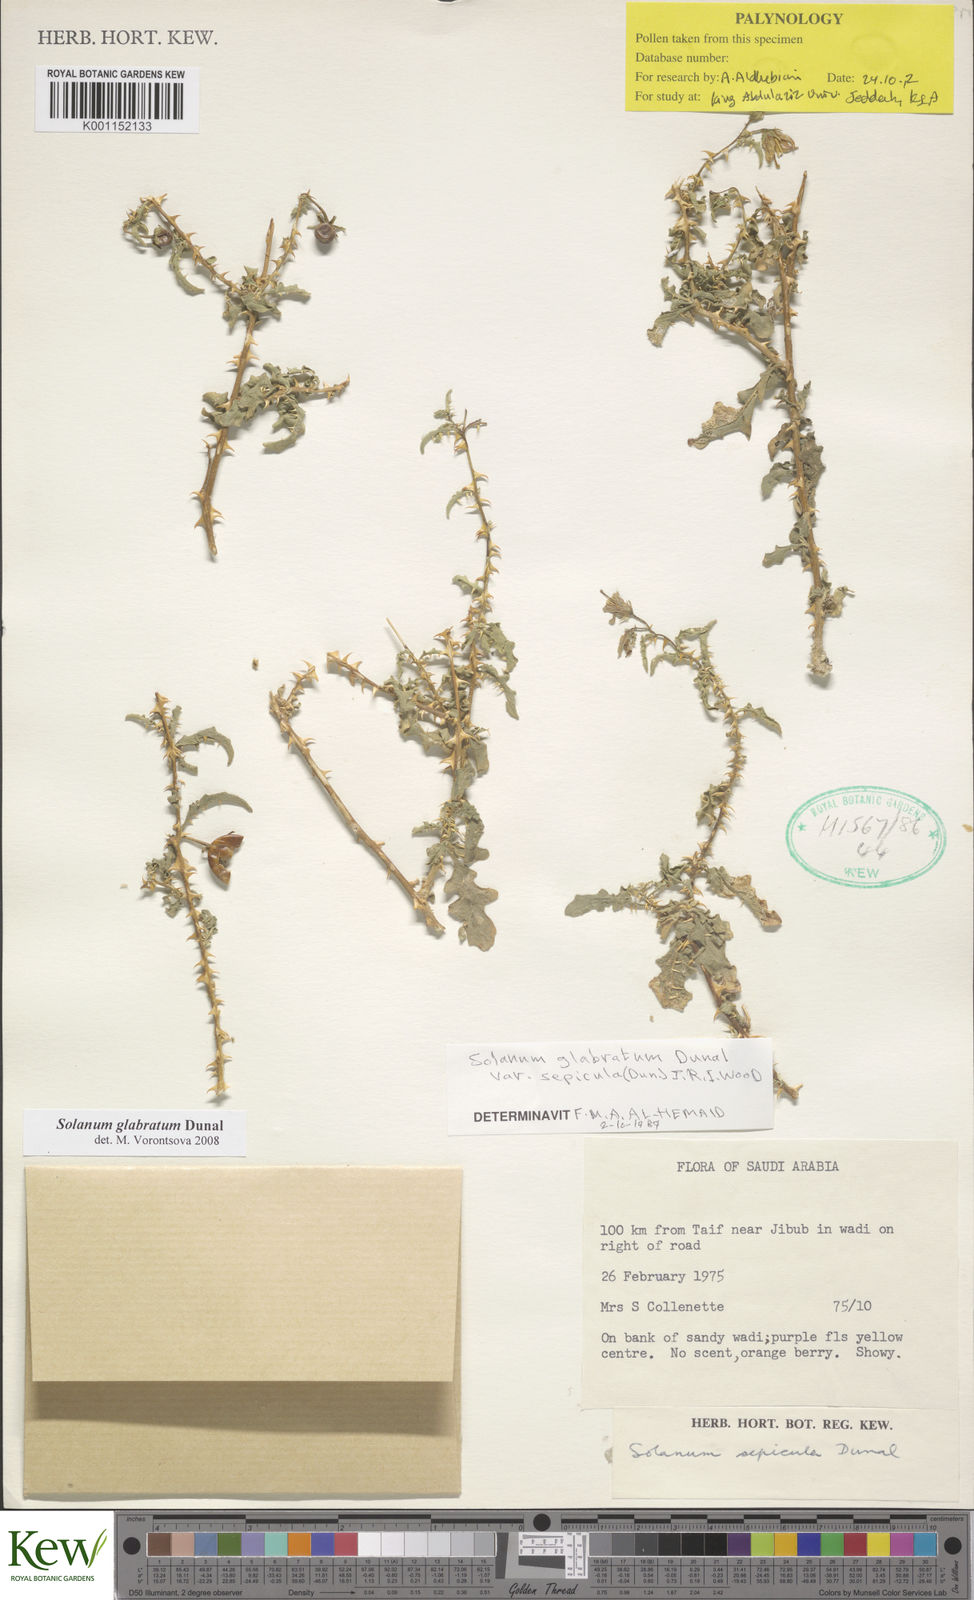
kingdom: Plantae
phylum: Tracheophyta
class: Magnoliopsida
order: Solanales
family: Solanaceae
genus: Solanum
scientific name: Solanum glabratum
